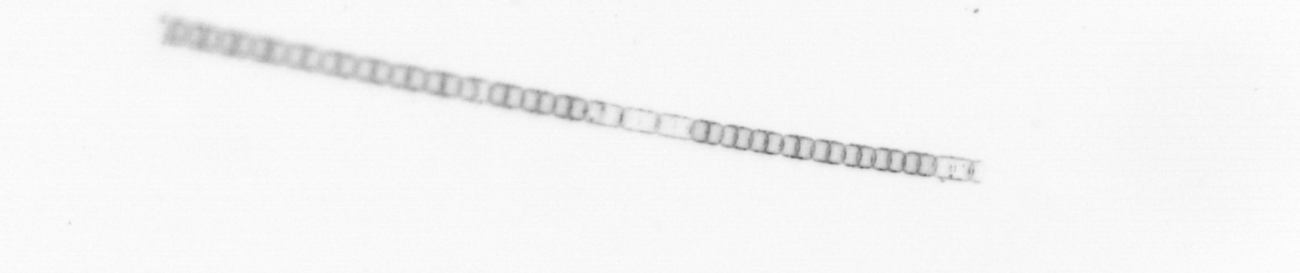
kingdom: Chromista
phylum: Ochrophyta
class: Bacillariophyceae
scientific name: Bacillariophyceae
